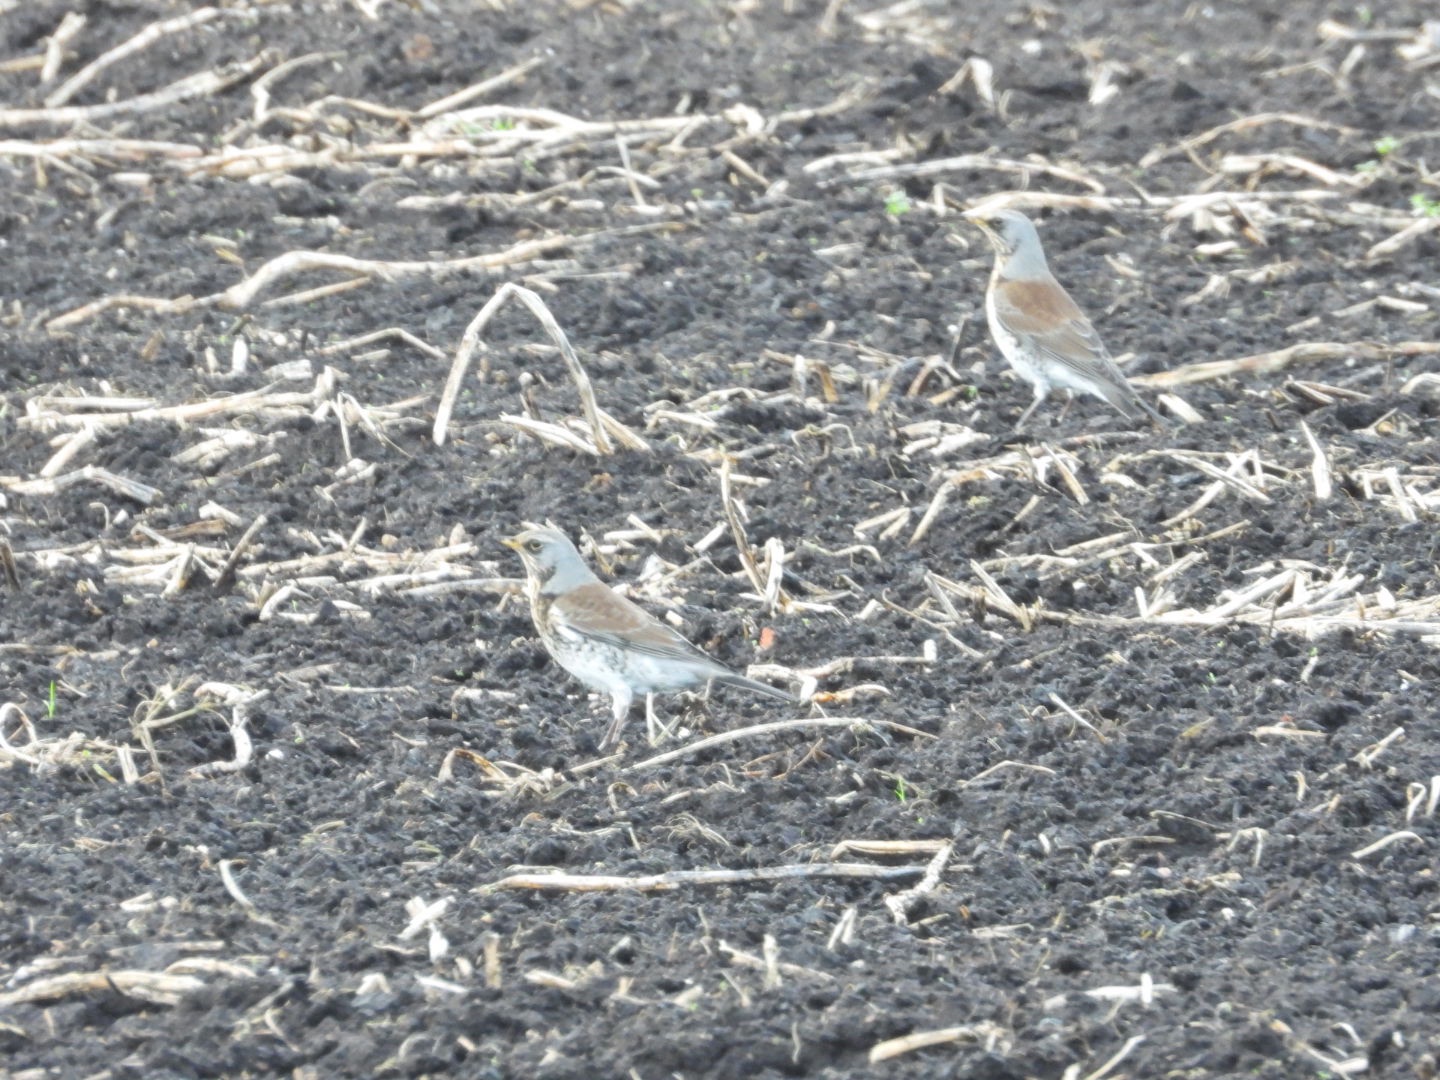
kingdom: Animalia
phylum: Chordata
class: Aves
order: Passeriformes
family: Turdidae
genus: Turdus
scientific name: Turdus pilaris
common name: Sjagger
